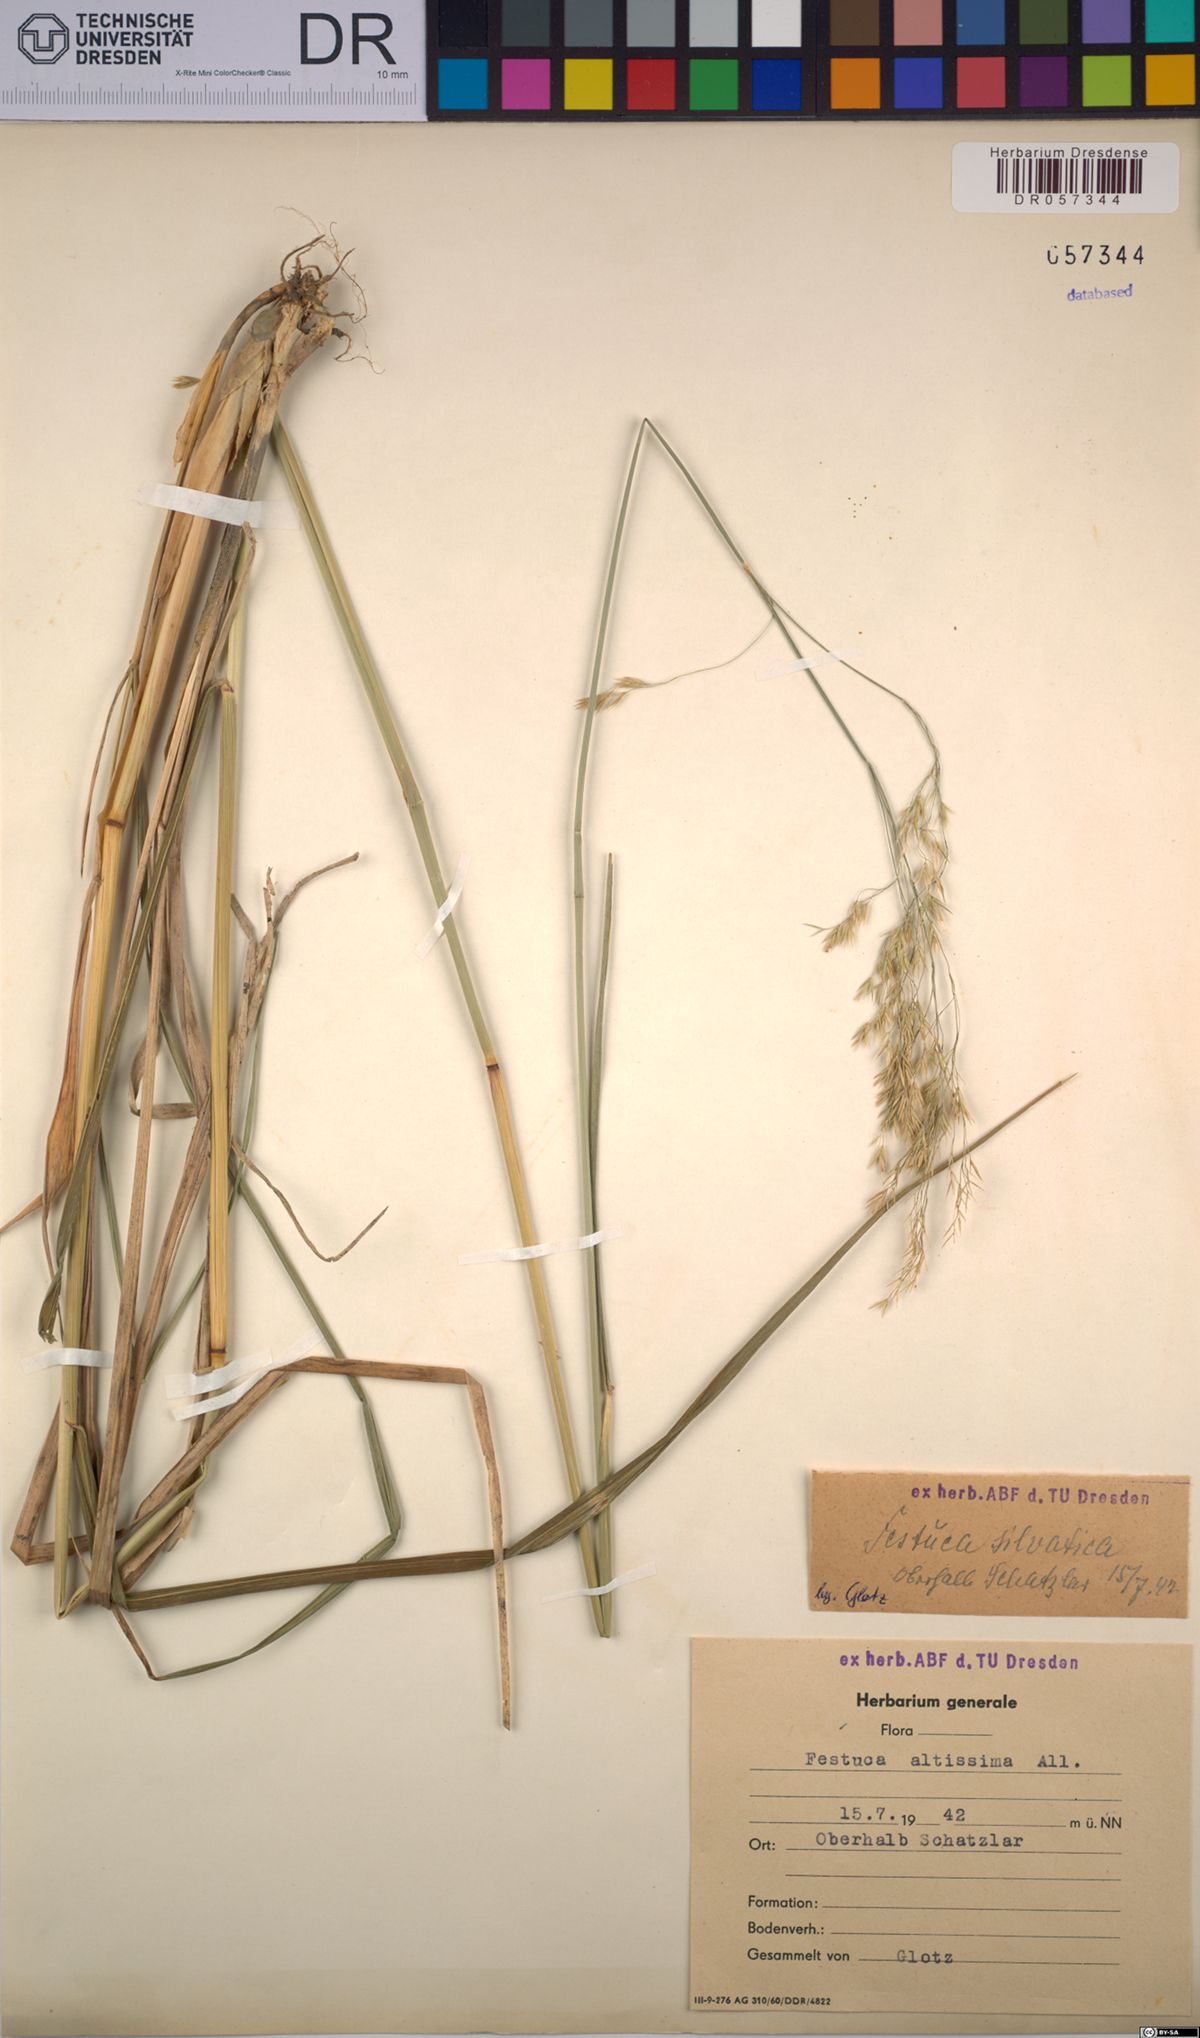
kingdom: Plantae
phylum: Tracheophyta
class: Liliopsida
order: Poales
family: Poaceae
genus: Festuca
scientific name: Festuca altissima
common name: Wood fescue
